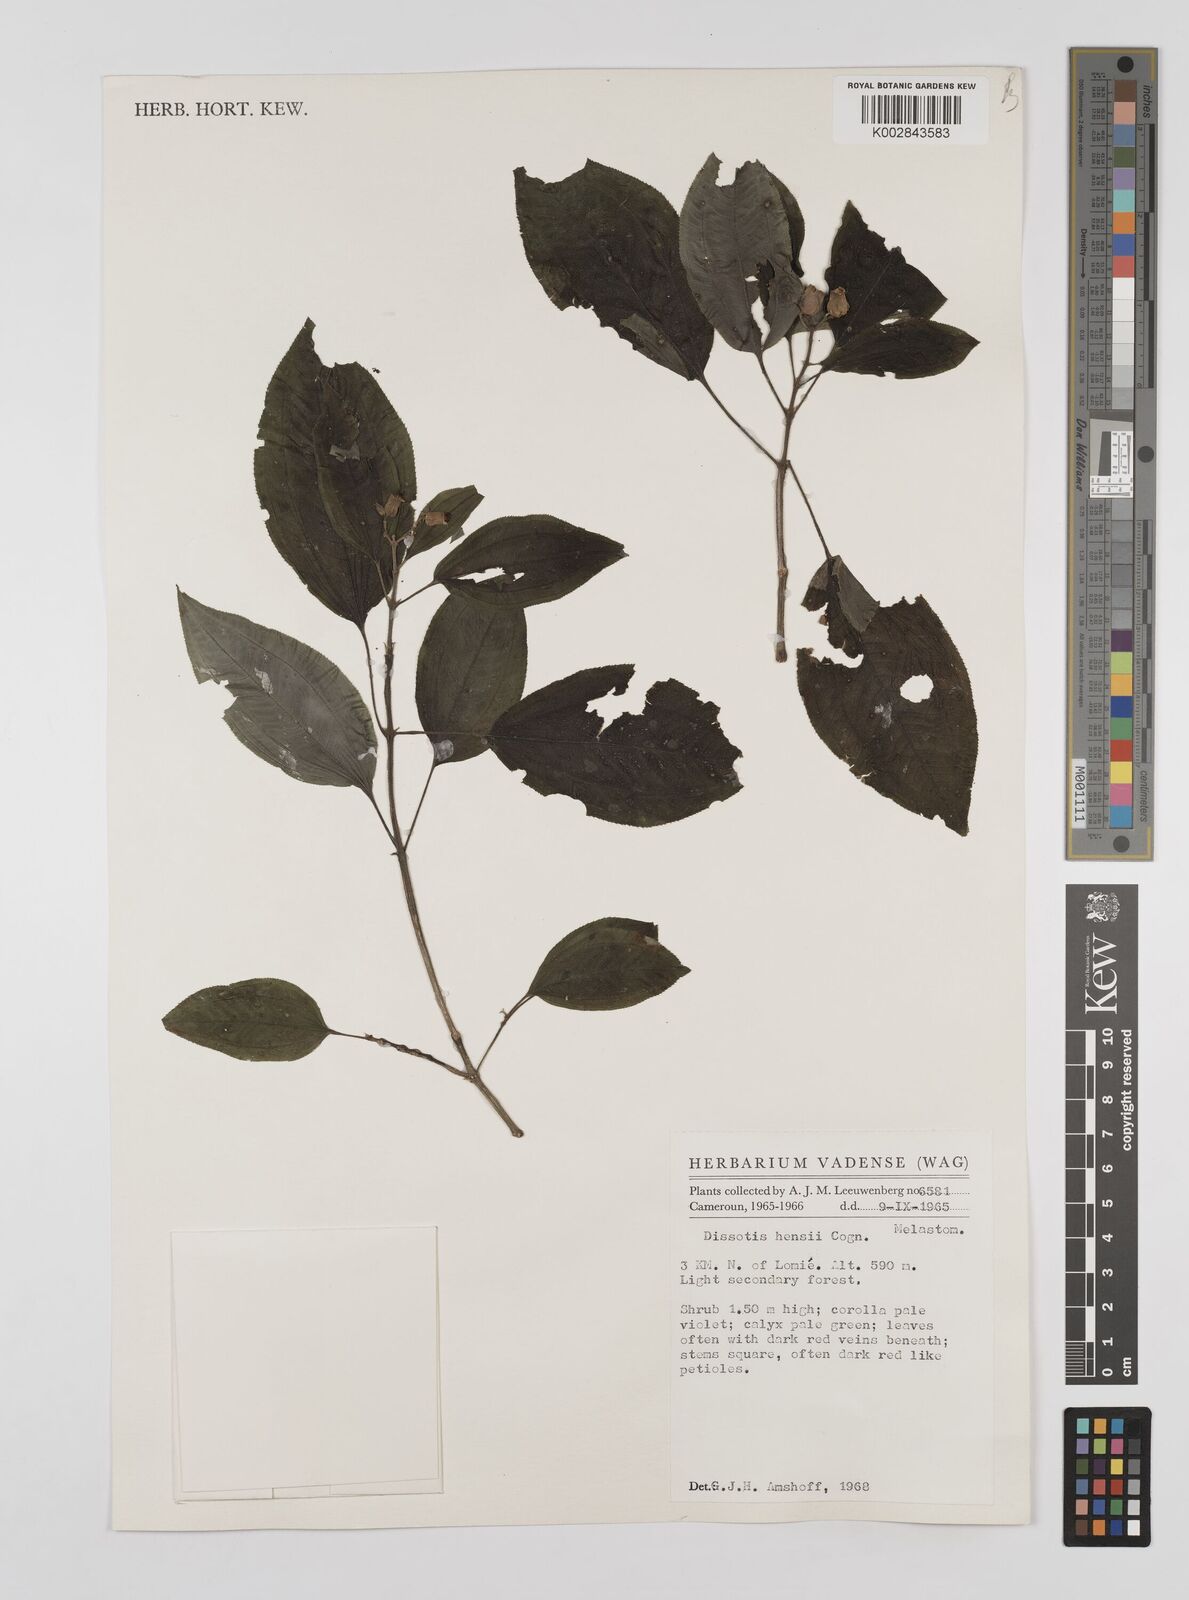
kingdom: Plantae
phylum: Tracheophyta
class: Magnoliopsida
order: Myrtales
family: Melastomataceae
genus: Dupineta
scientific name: Dupineta hensii
